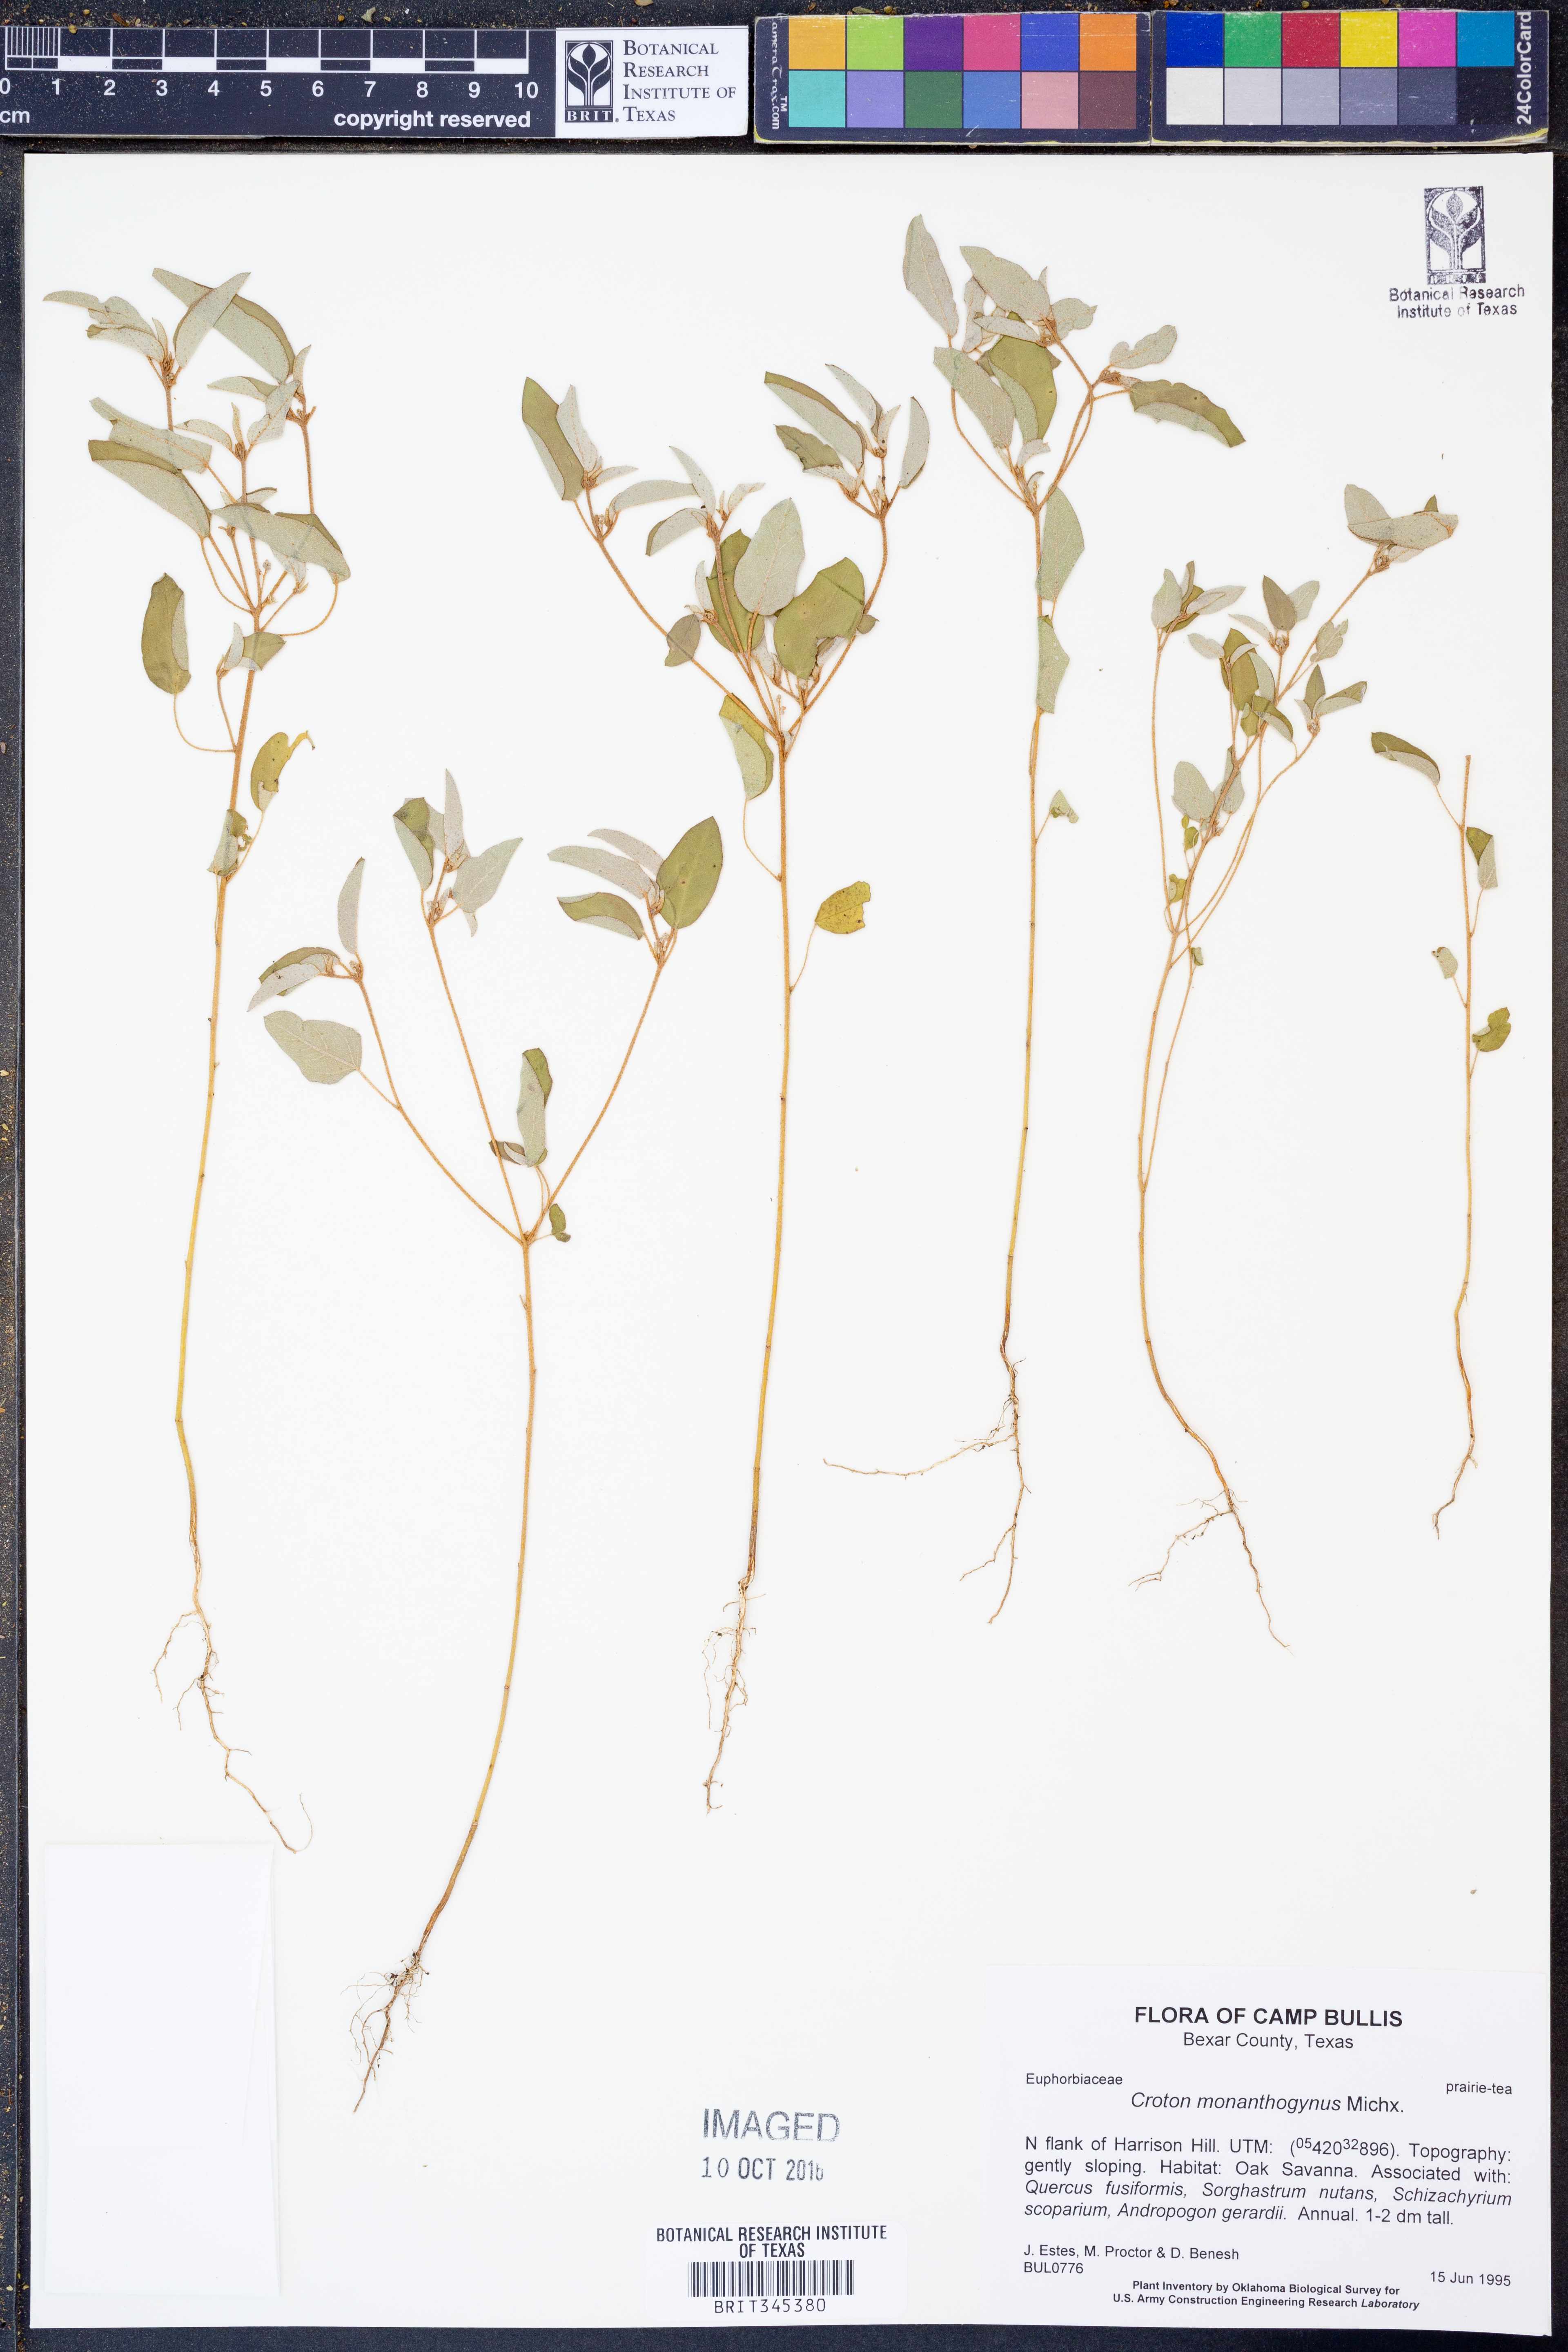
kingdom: Plantae
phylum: Tracheophyta
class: Magnoliopsida
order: Malpighiales
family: Euphorbiaceae
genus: Croton
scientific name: Croton monanthogynus
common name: One-seed croton
